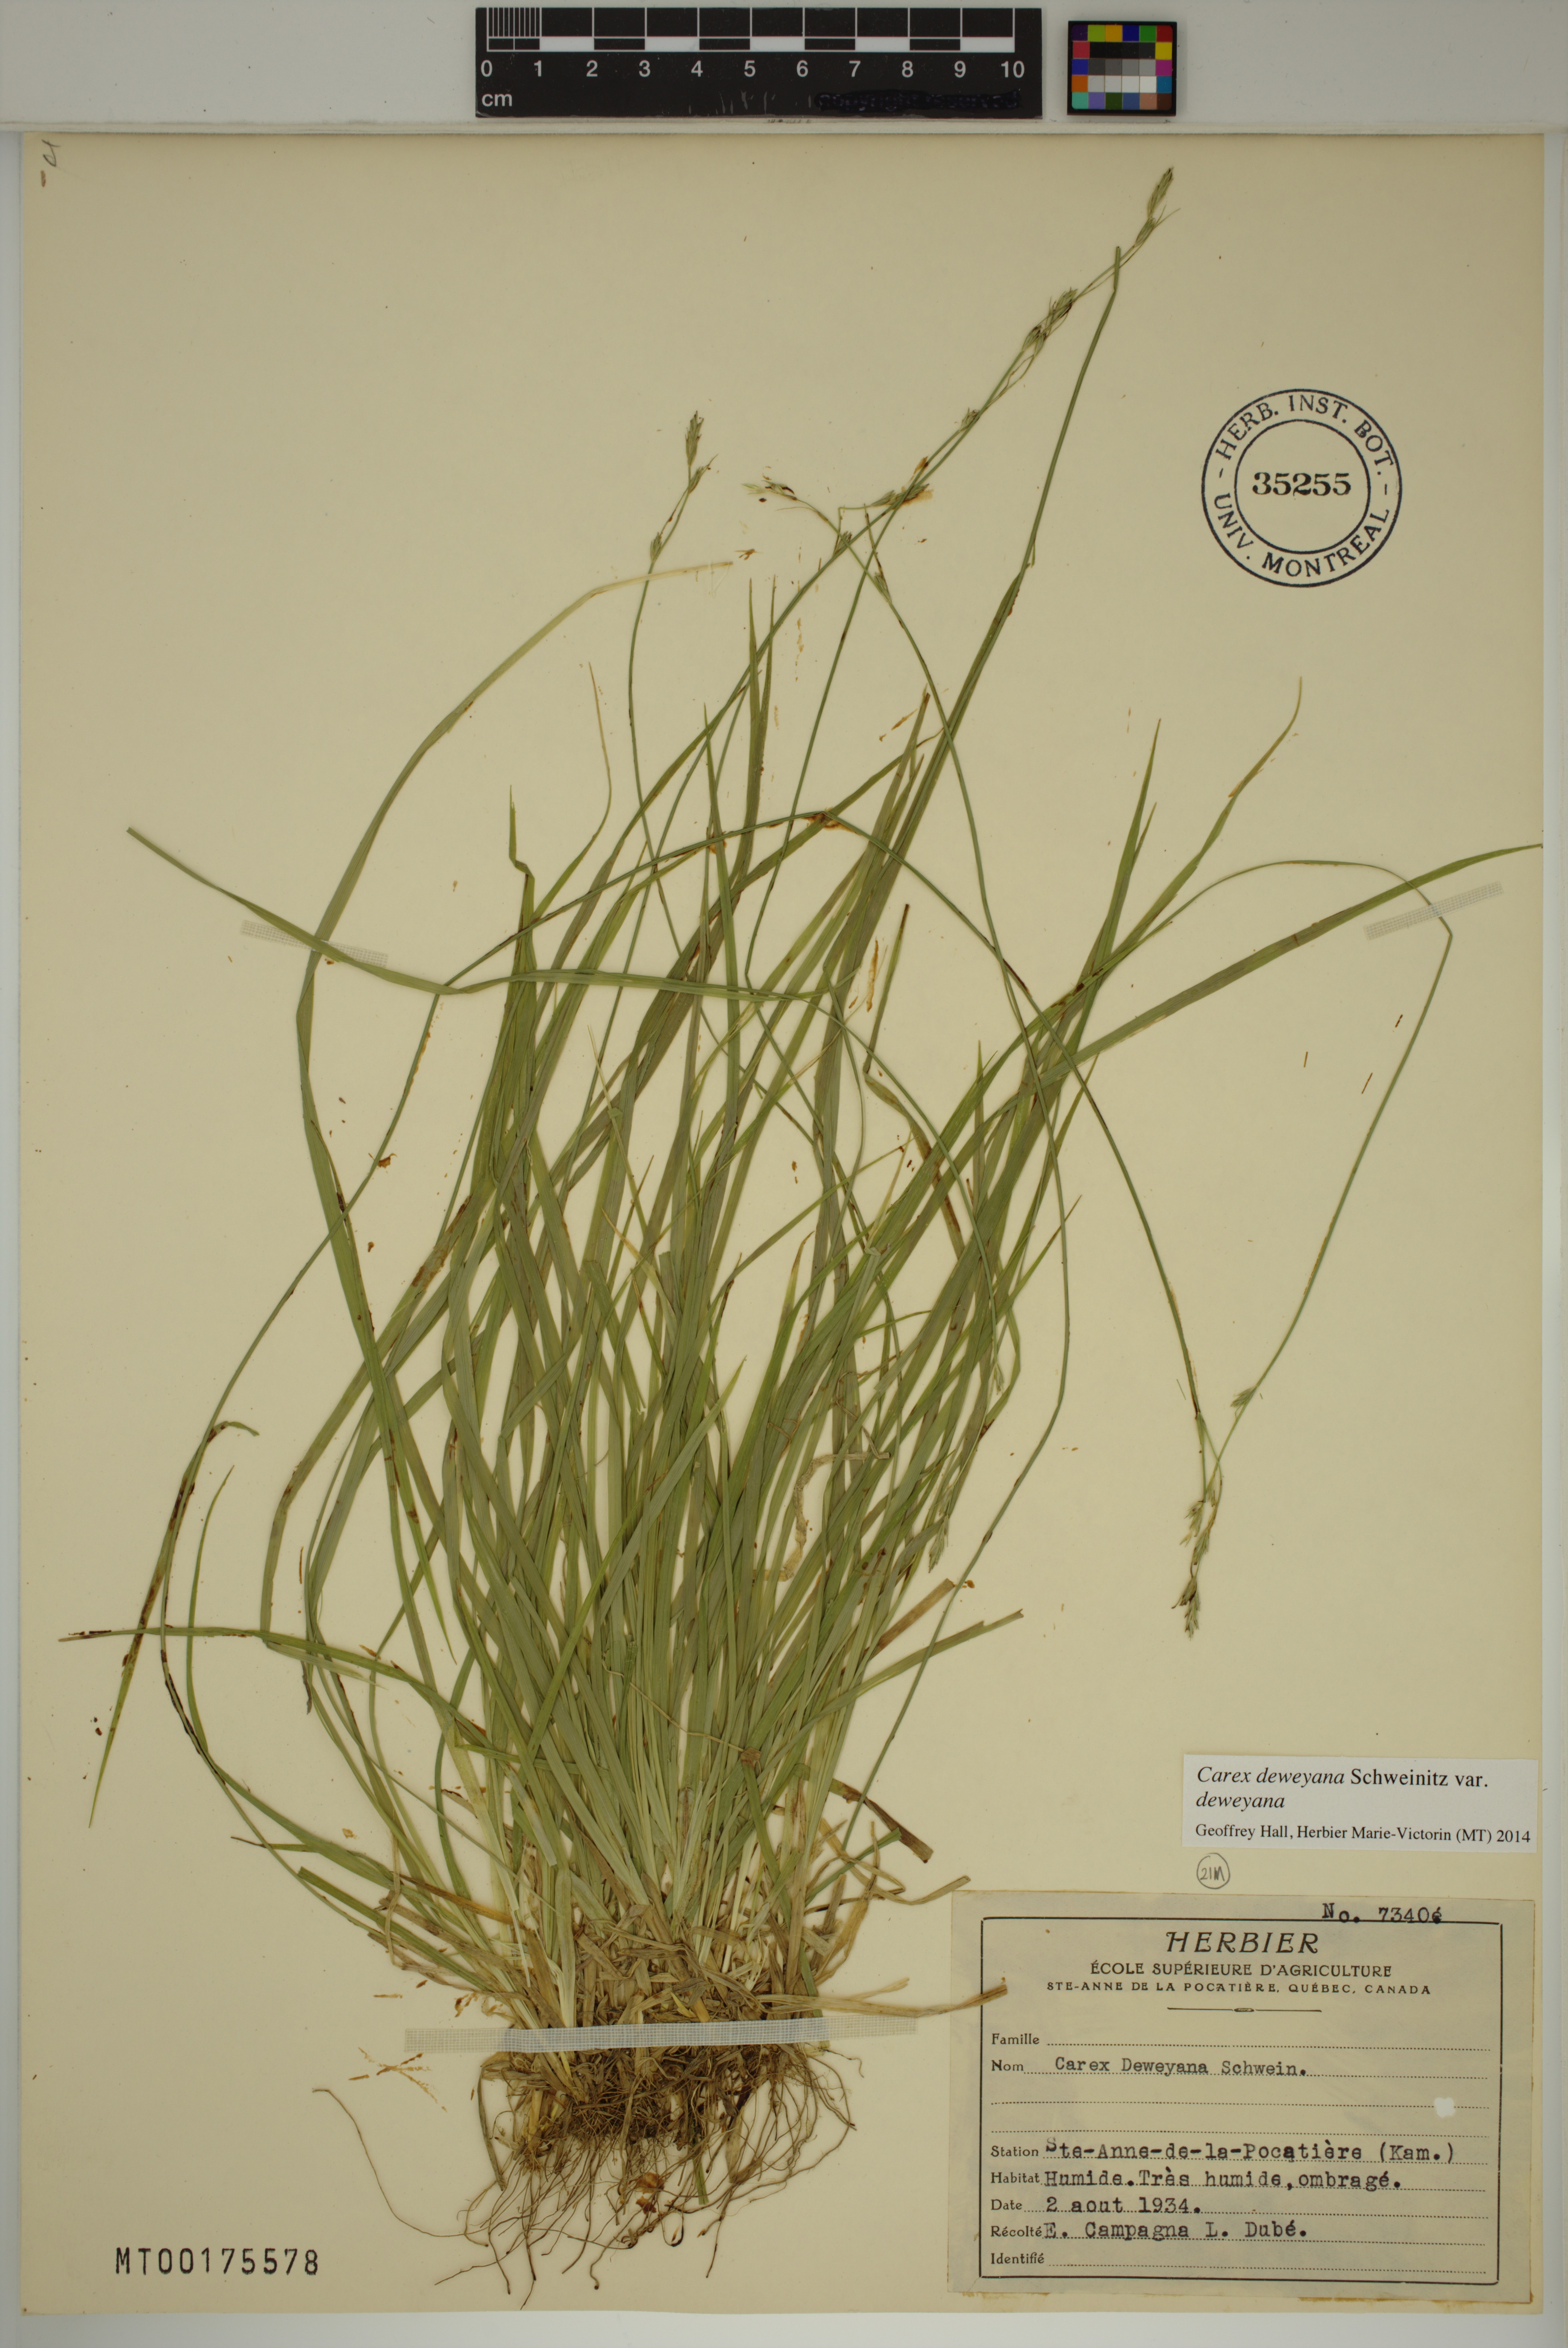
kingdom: Plantae
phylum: Tracheophyta
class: Liliopsida
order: Poales
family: Cyperaceae
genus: Carex
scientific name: Carex deweyana
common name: Dewey's sedge
